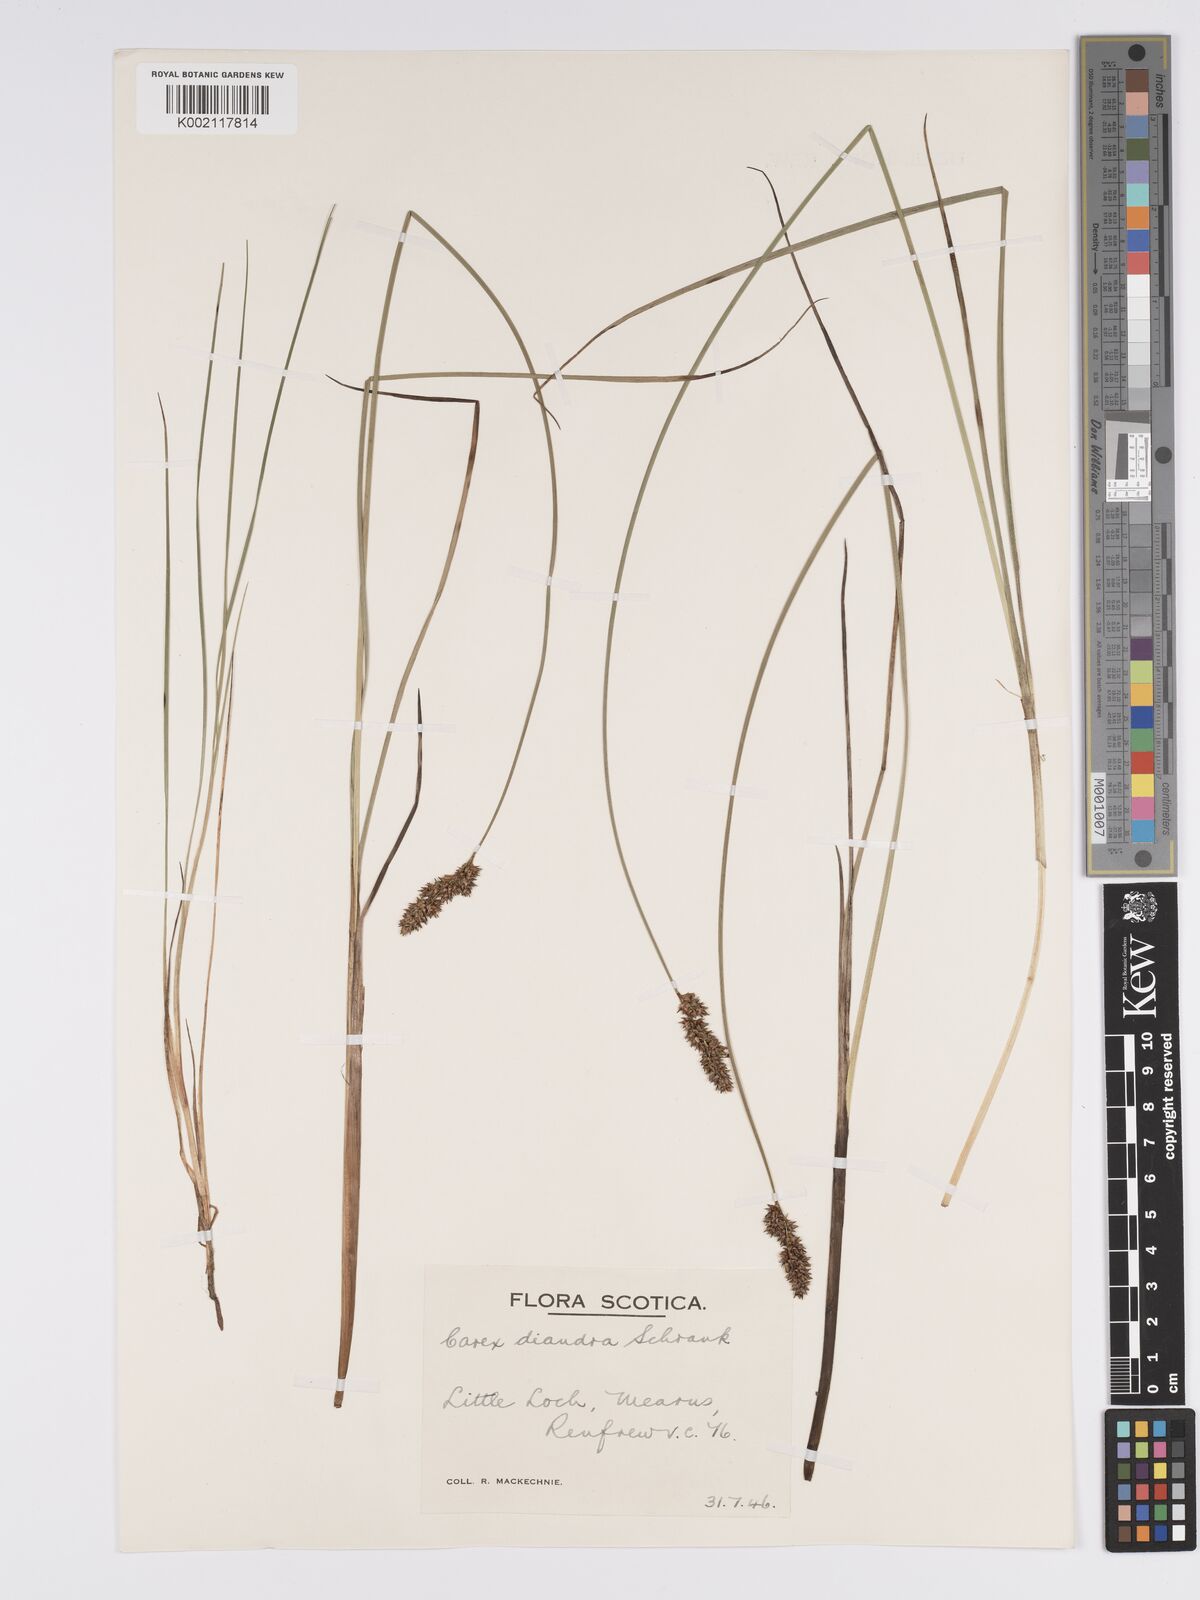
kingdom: Plantae
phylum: Tracheophyta
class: Liliopsida
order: Poales
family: Cyperaceae
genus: Carex
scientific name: Carex diandra
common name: Lesser tussock-sedge
